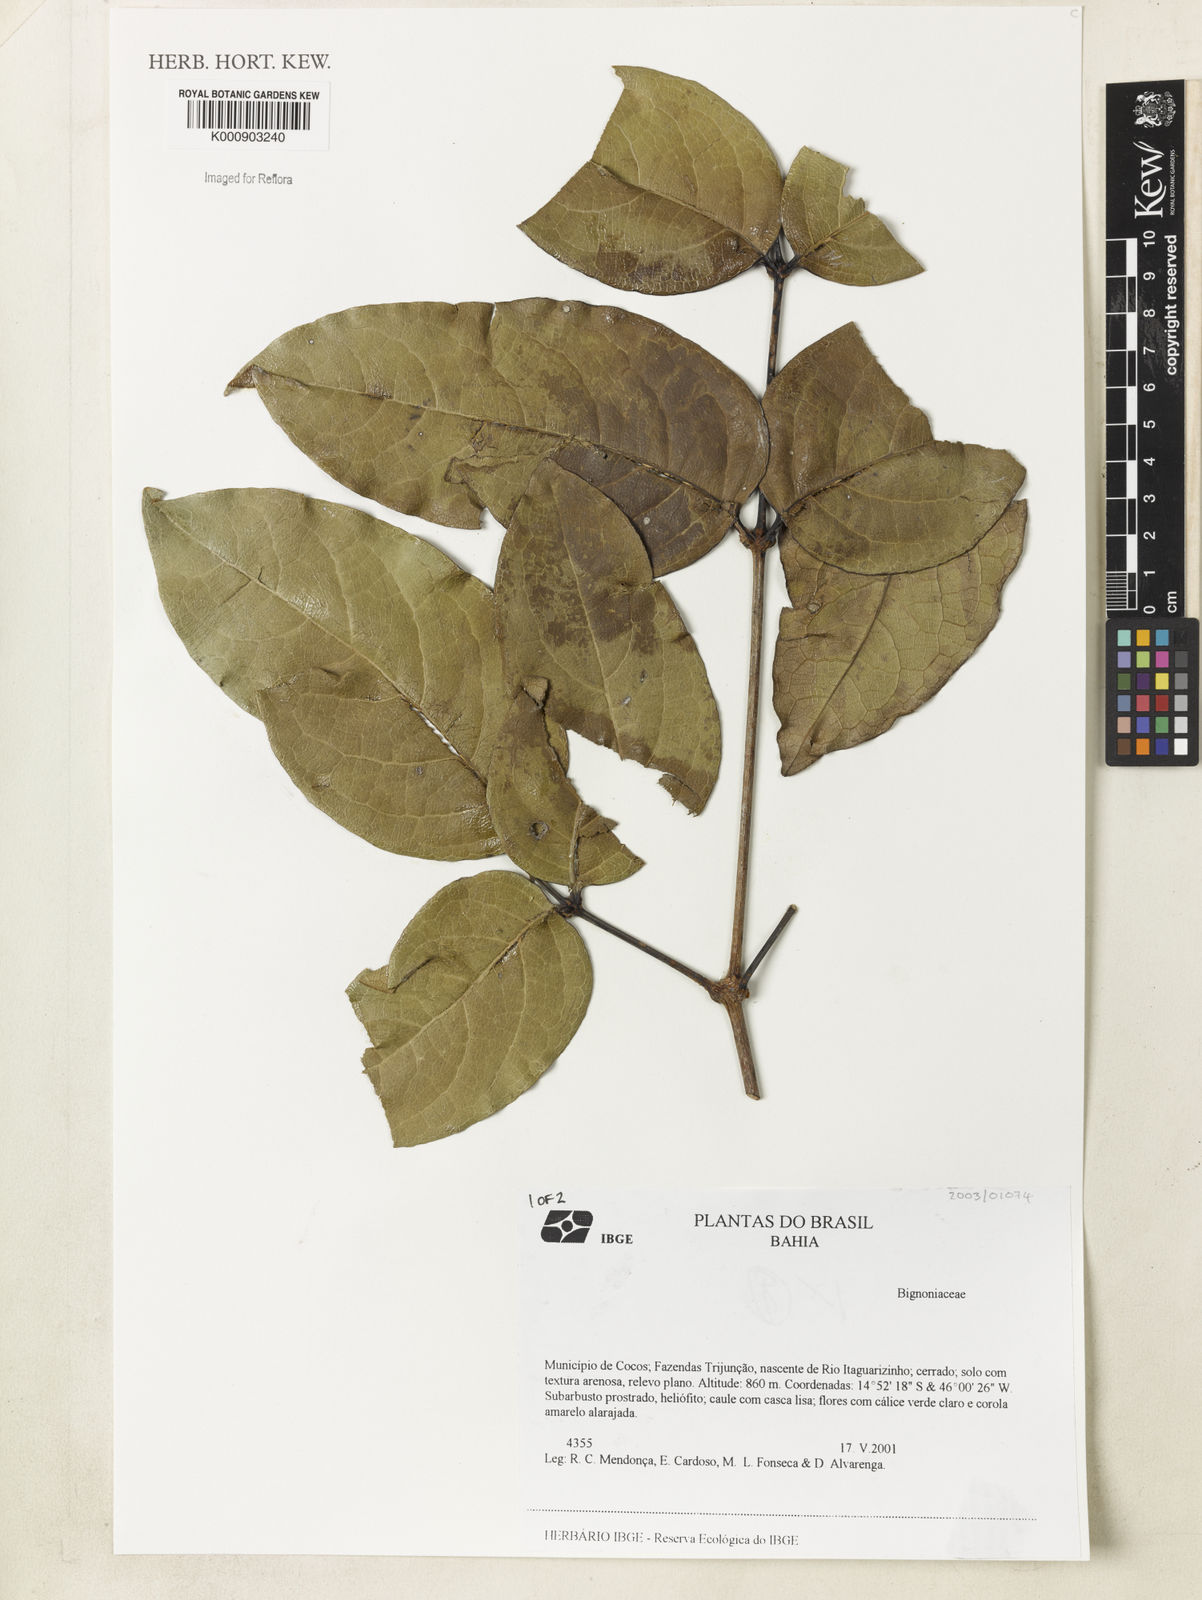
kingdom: Plantae
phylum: Tracheophyta
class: Magnoliopsida
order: Lamiales
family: Bignoniaceae
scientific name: Bignoniaceae
